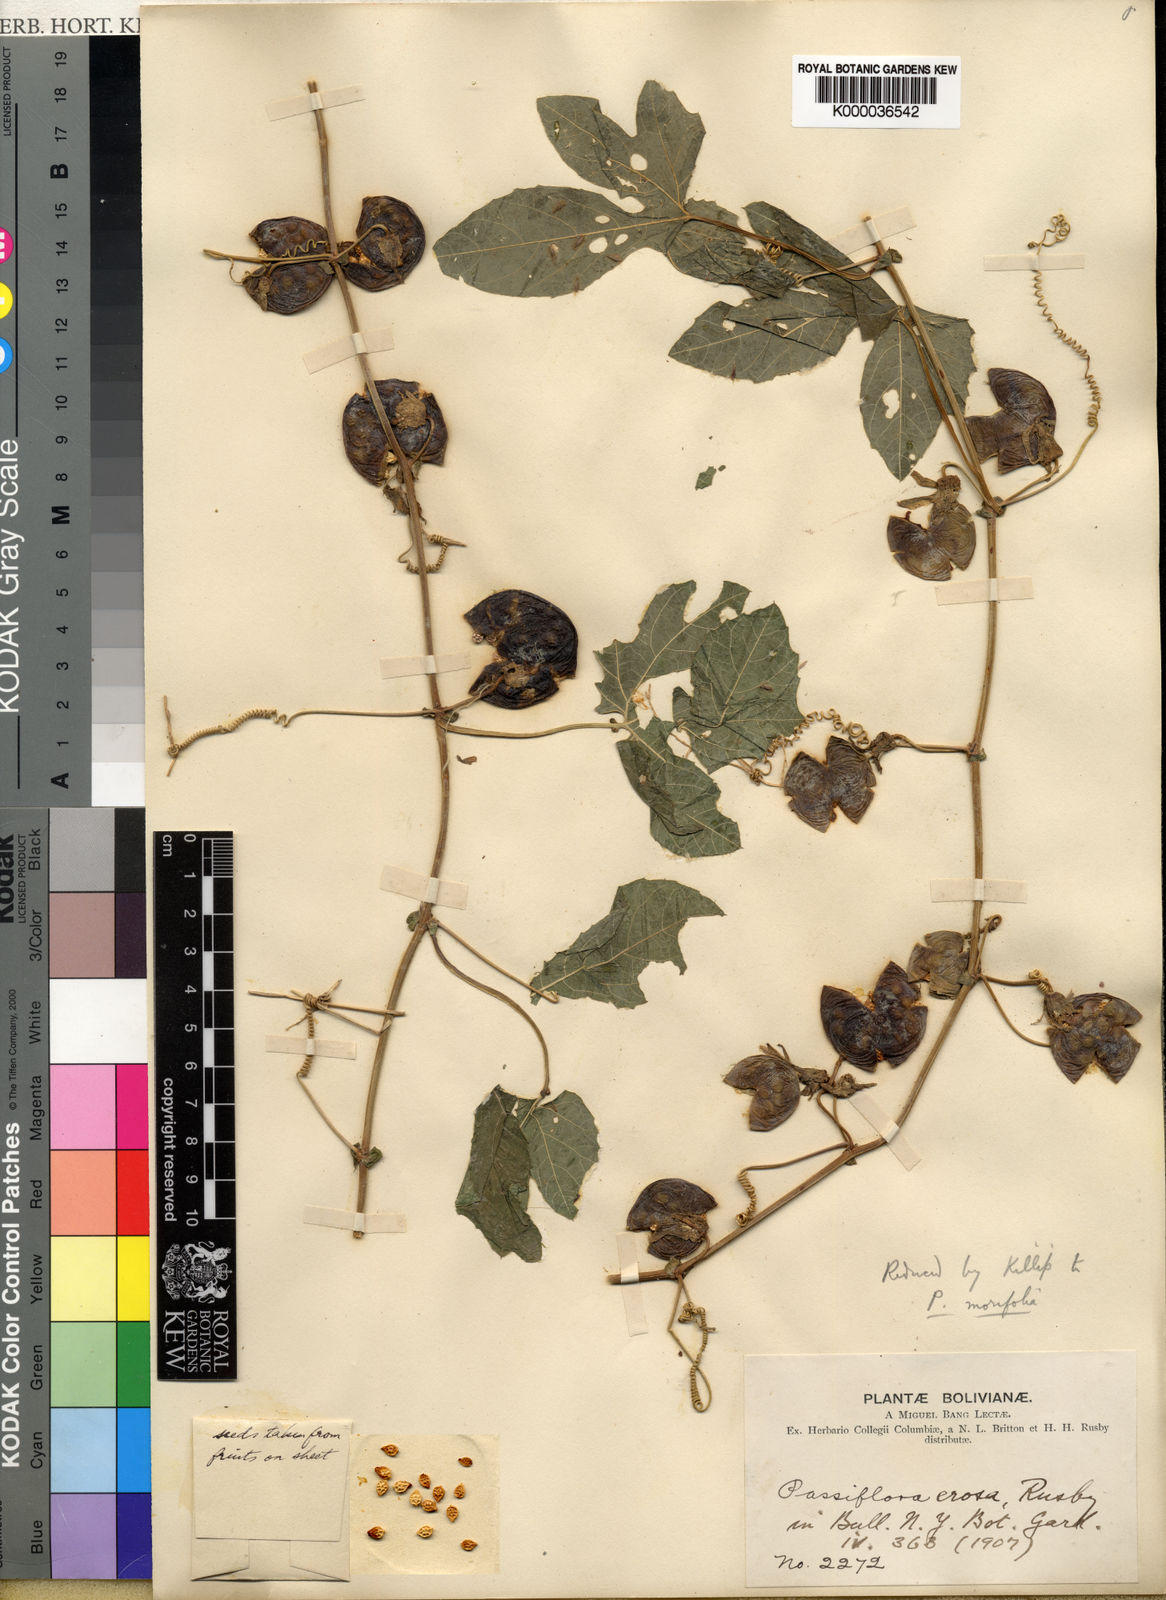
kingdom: Plantae
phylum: Tracheophyta
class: Magnoliopsida
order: Malpighiales
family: Passifloraceae
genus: Passiflora
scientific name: Passiflora morifolia
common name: Woodland passionflower
